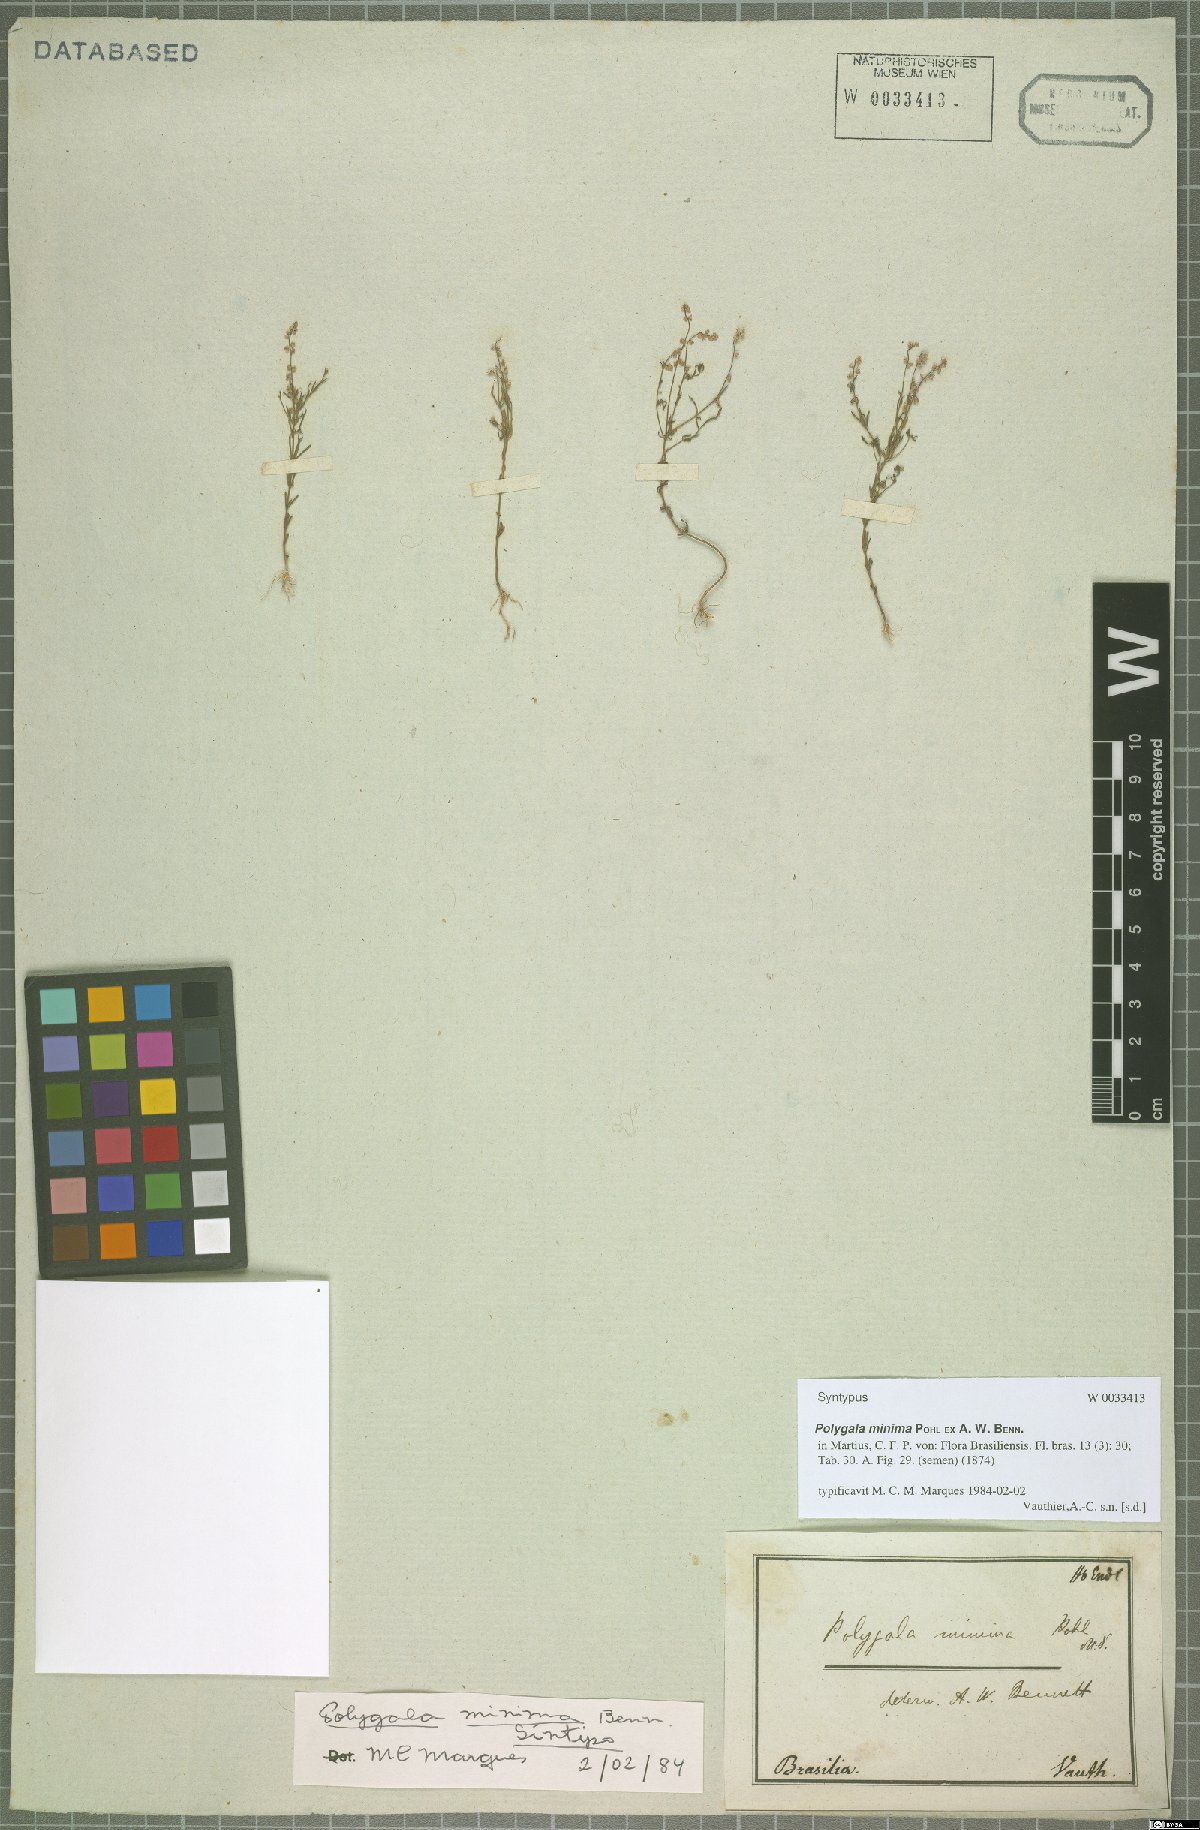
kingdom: Plantae
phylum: Tracheophyta
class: Magnoliopsida
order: Fabales
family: Polygalaceae
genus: Polygala
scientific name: Polygala glochidiata
